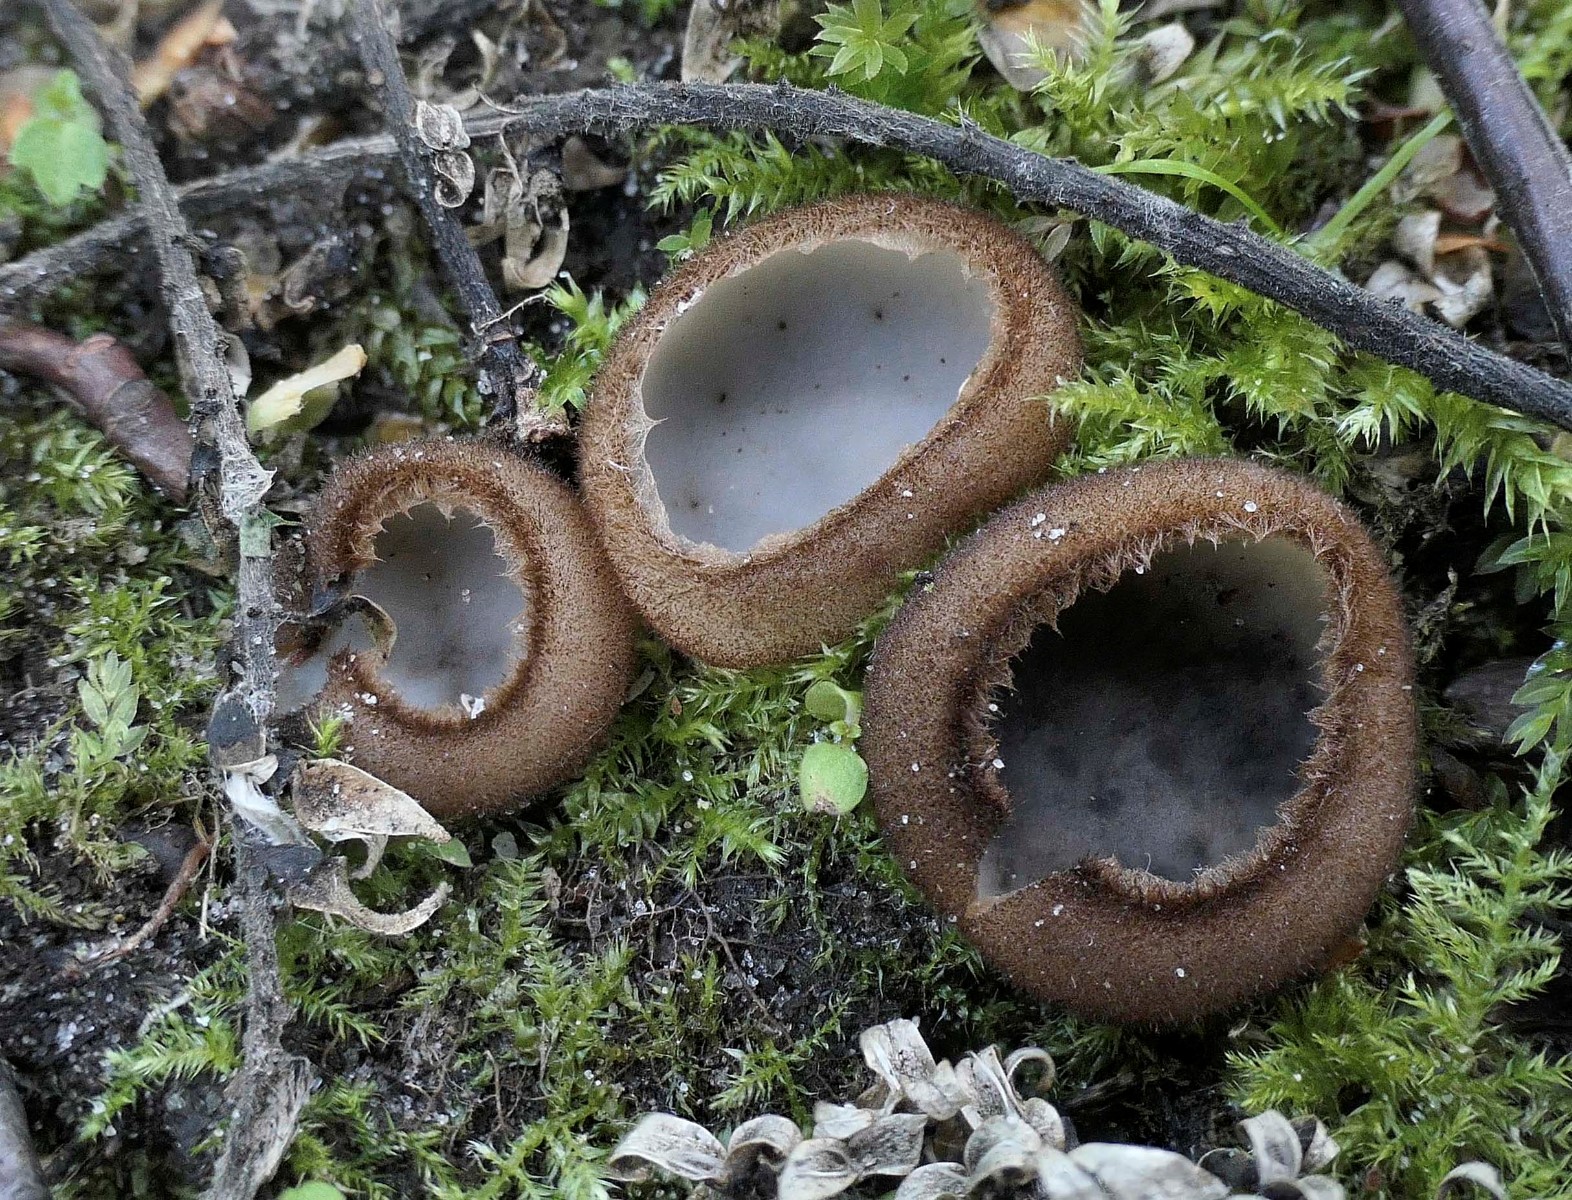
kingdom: Fungi
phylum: Ascomycota
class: Pezizomycetes
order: Pezizales
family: Pyronemataceae
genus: Humaria
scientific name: Humaria hemisphaerica
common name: halvkugleformet børstebæger
